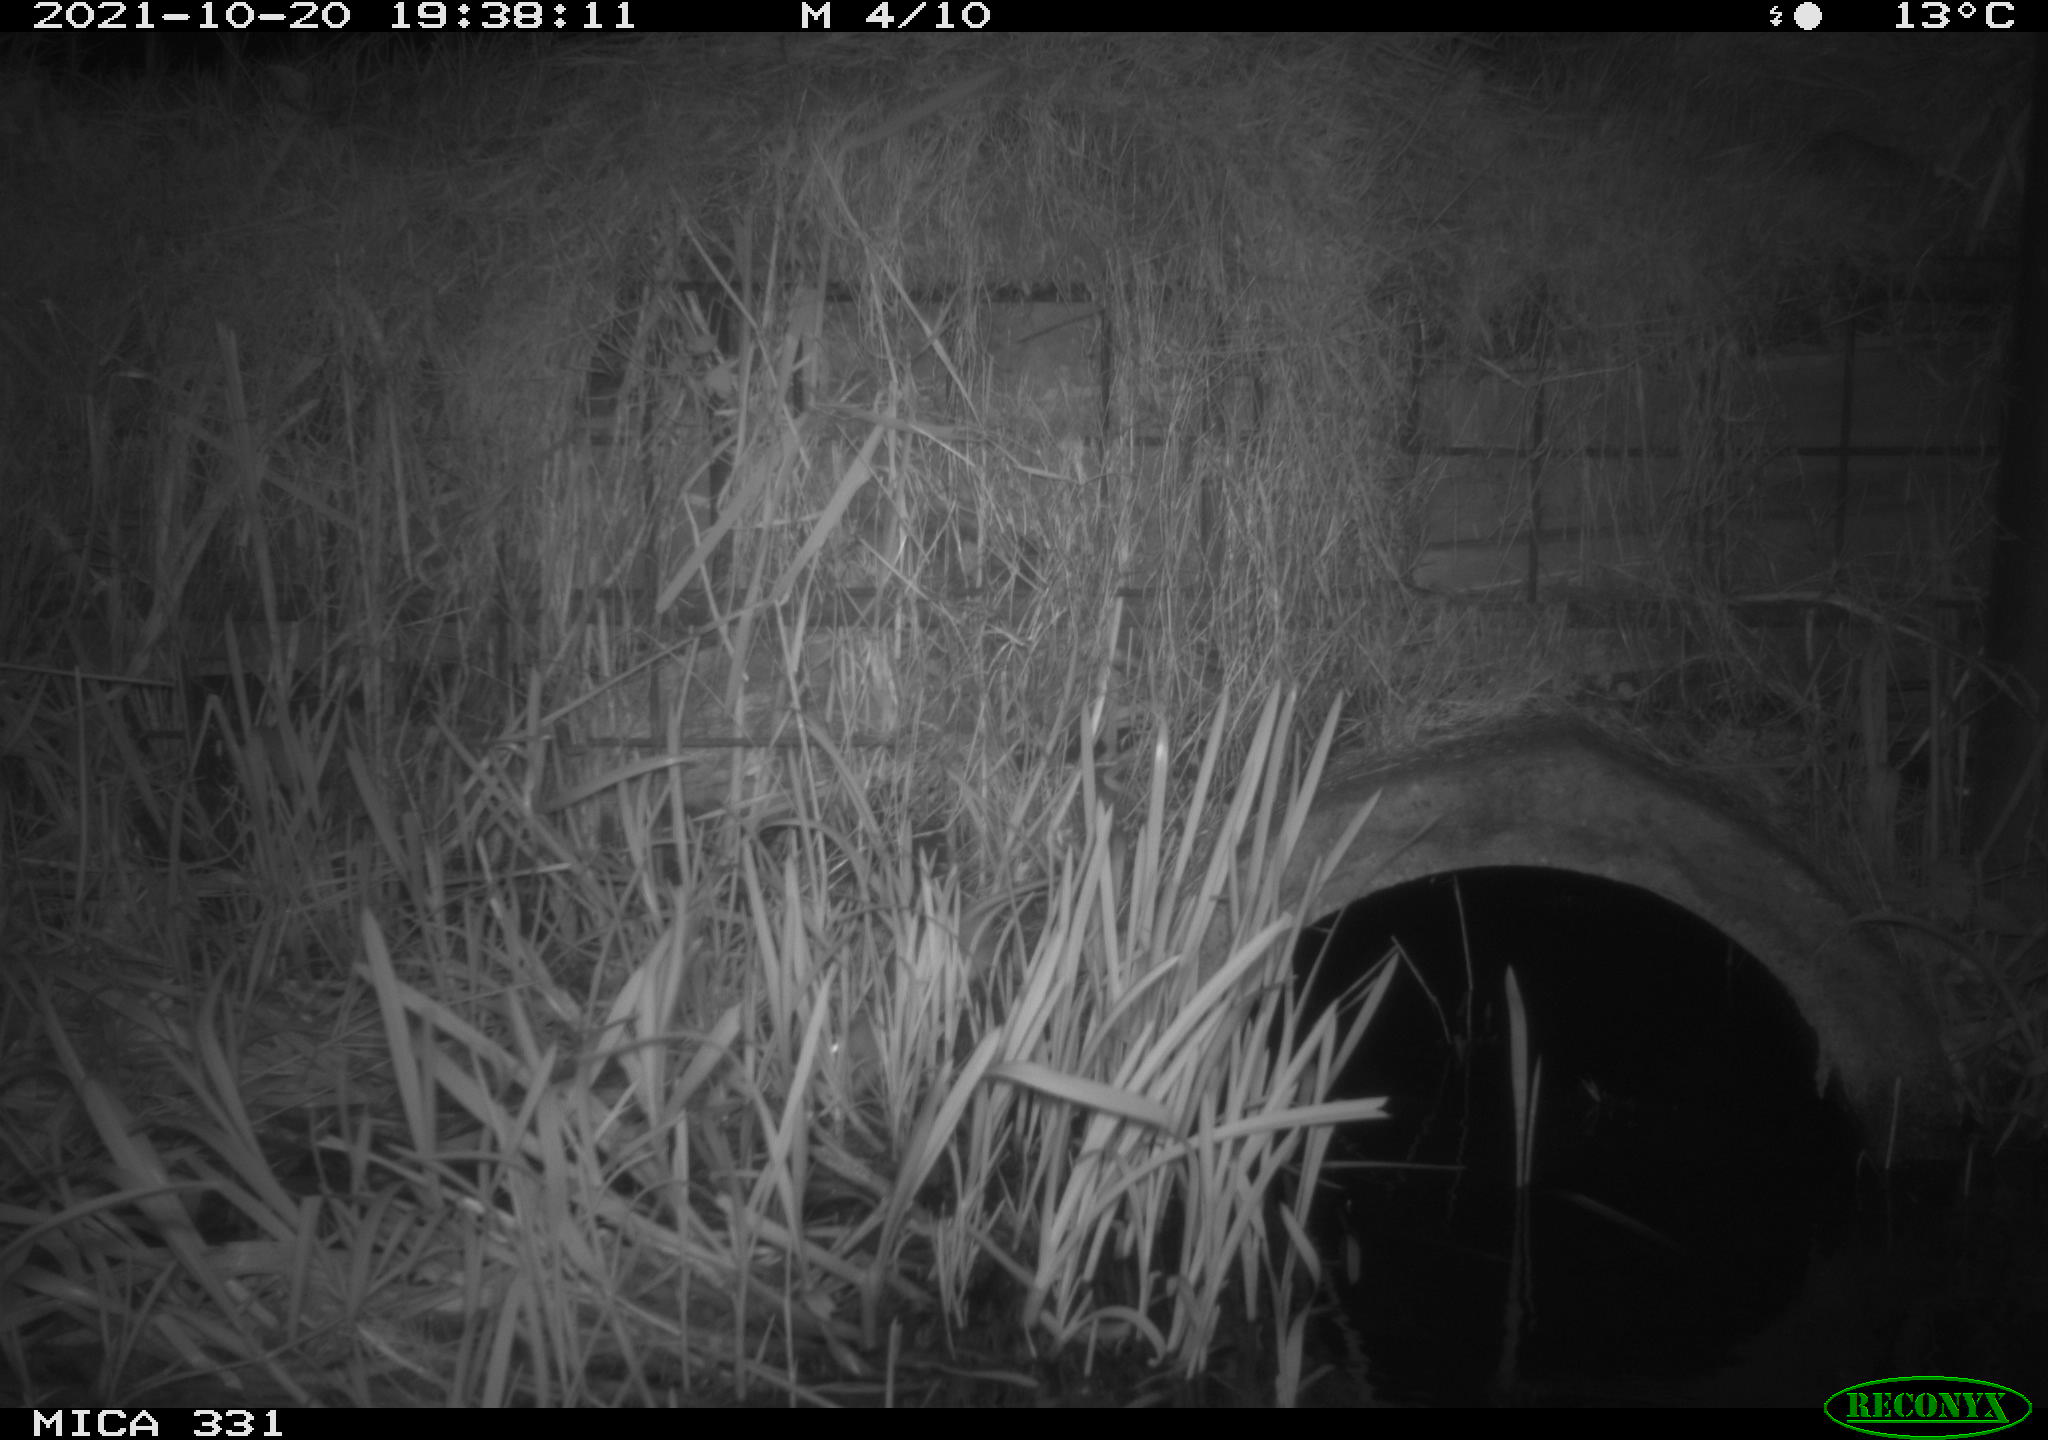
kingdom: Animalia
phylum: Chordata
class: Mammalia
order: Rodentia
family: Muridae
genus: Rattus
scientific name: Rattus norvegicus
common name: Brown rat
